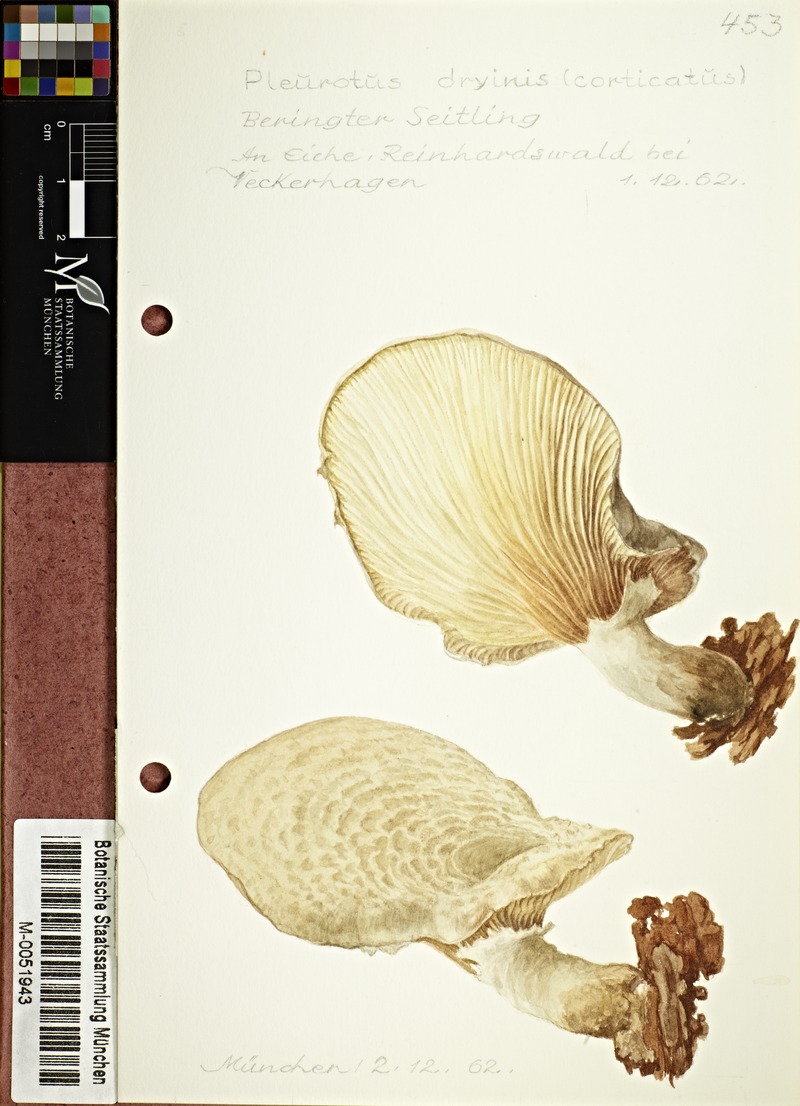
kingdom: Fungi
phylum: Basidiomycota
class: Agaricomycetes
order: Agaricales
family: Pleurotaceae
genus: Pleurotus
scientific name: Pleurotus dryinus
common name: Veiled oyster
